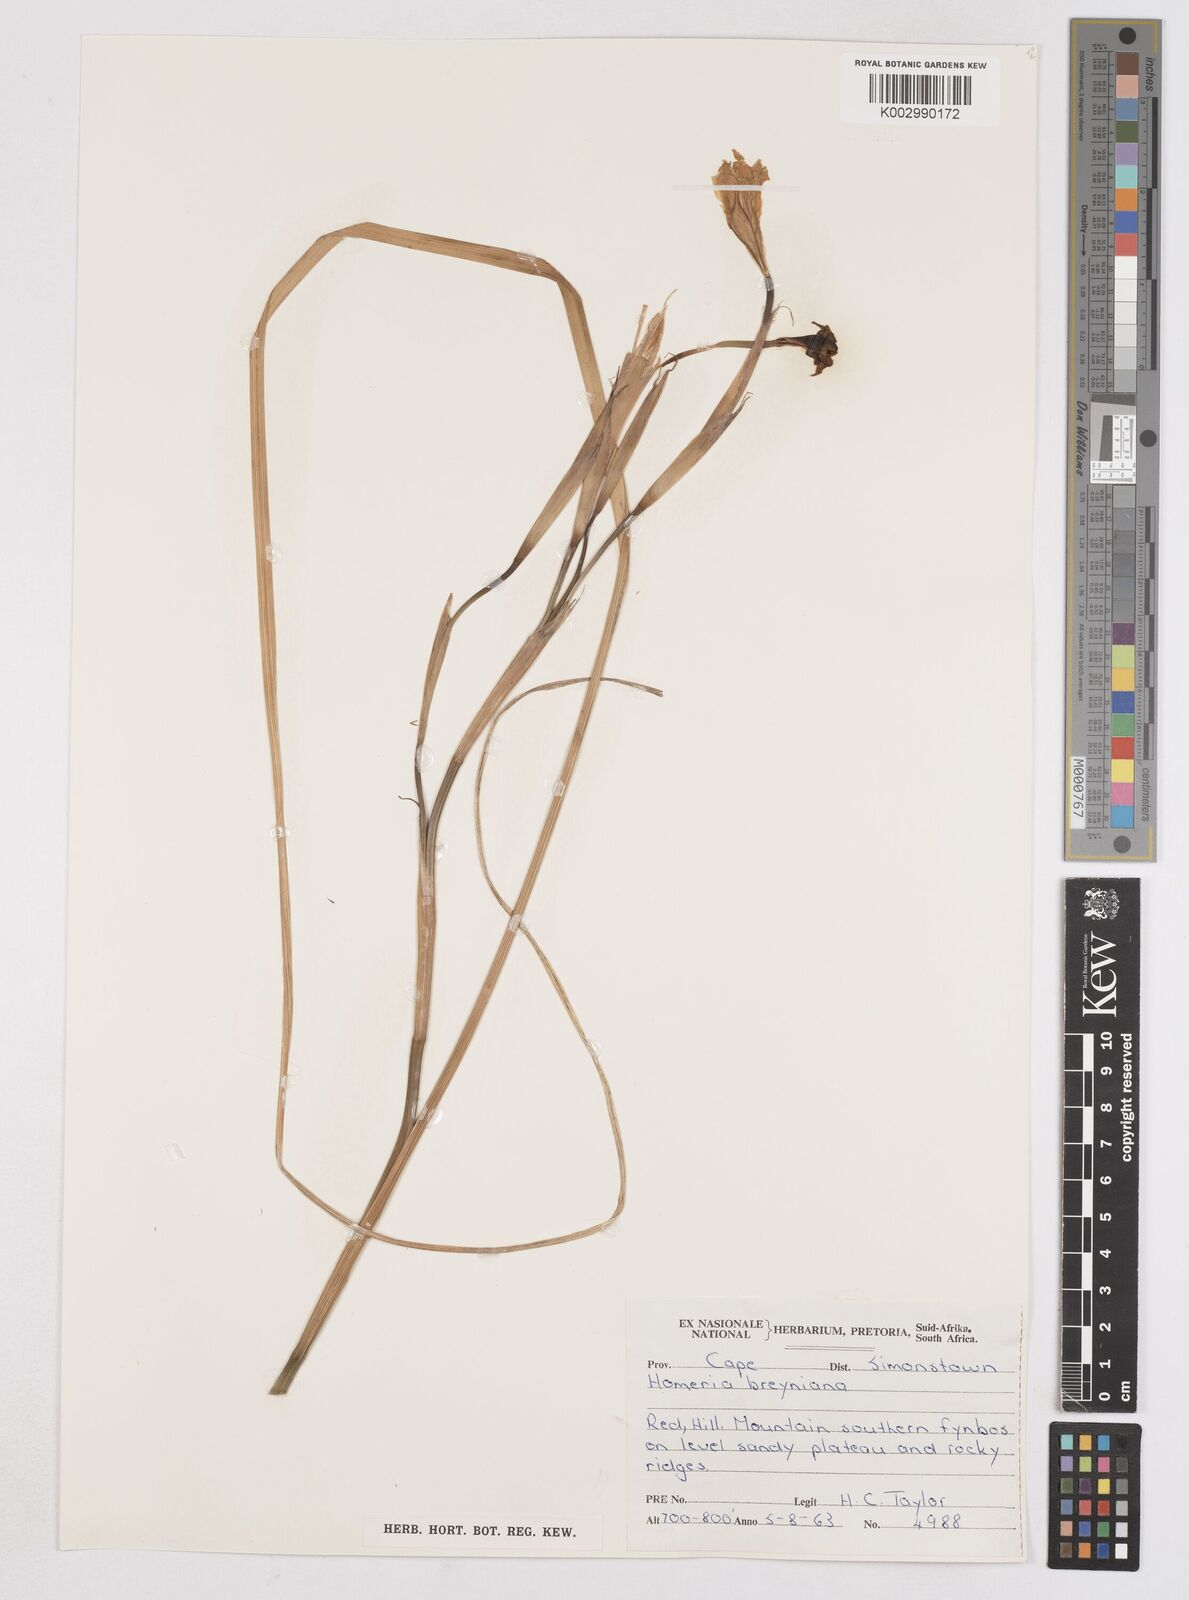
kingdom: Plantae
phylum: Tracheophyta
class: Liliopsida
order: Asparagales
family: Iridaceae
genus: Moraea
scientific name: Moraea collina
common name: Cape-tulip
